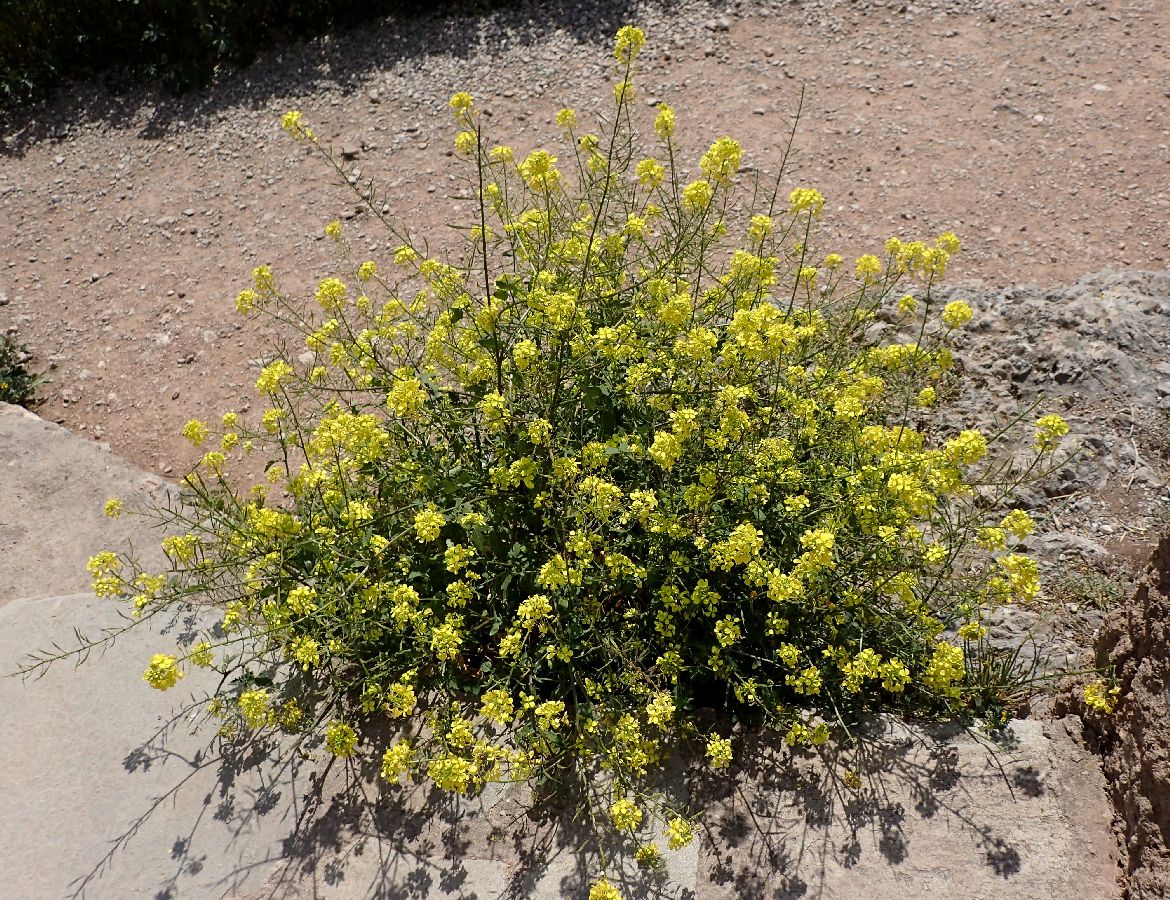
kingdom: Plantae
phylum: Tracheophyta
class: Magnoliopsida
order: Brassicales
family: Brassicaceae
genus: Sinapis
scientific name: Sinapis alba
